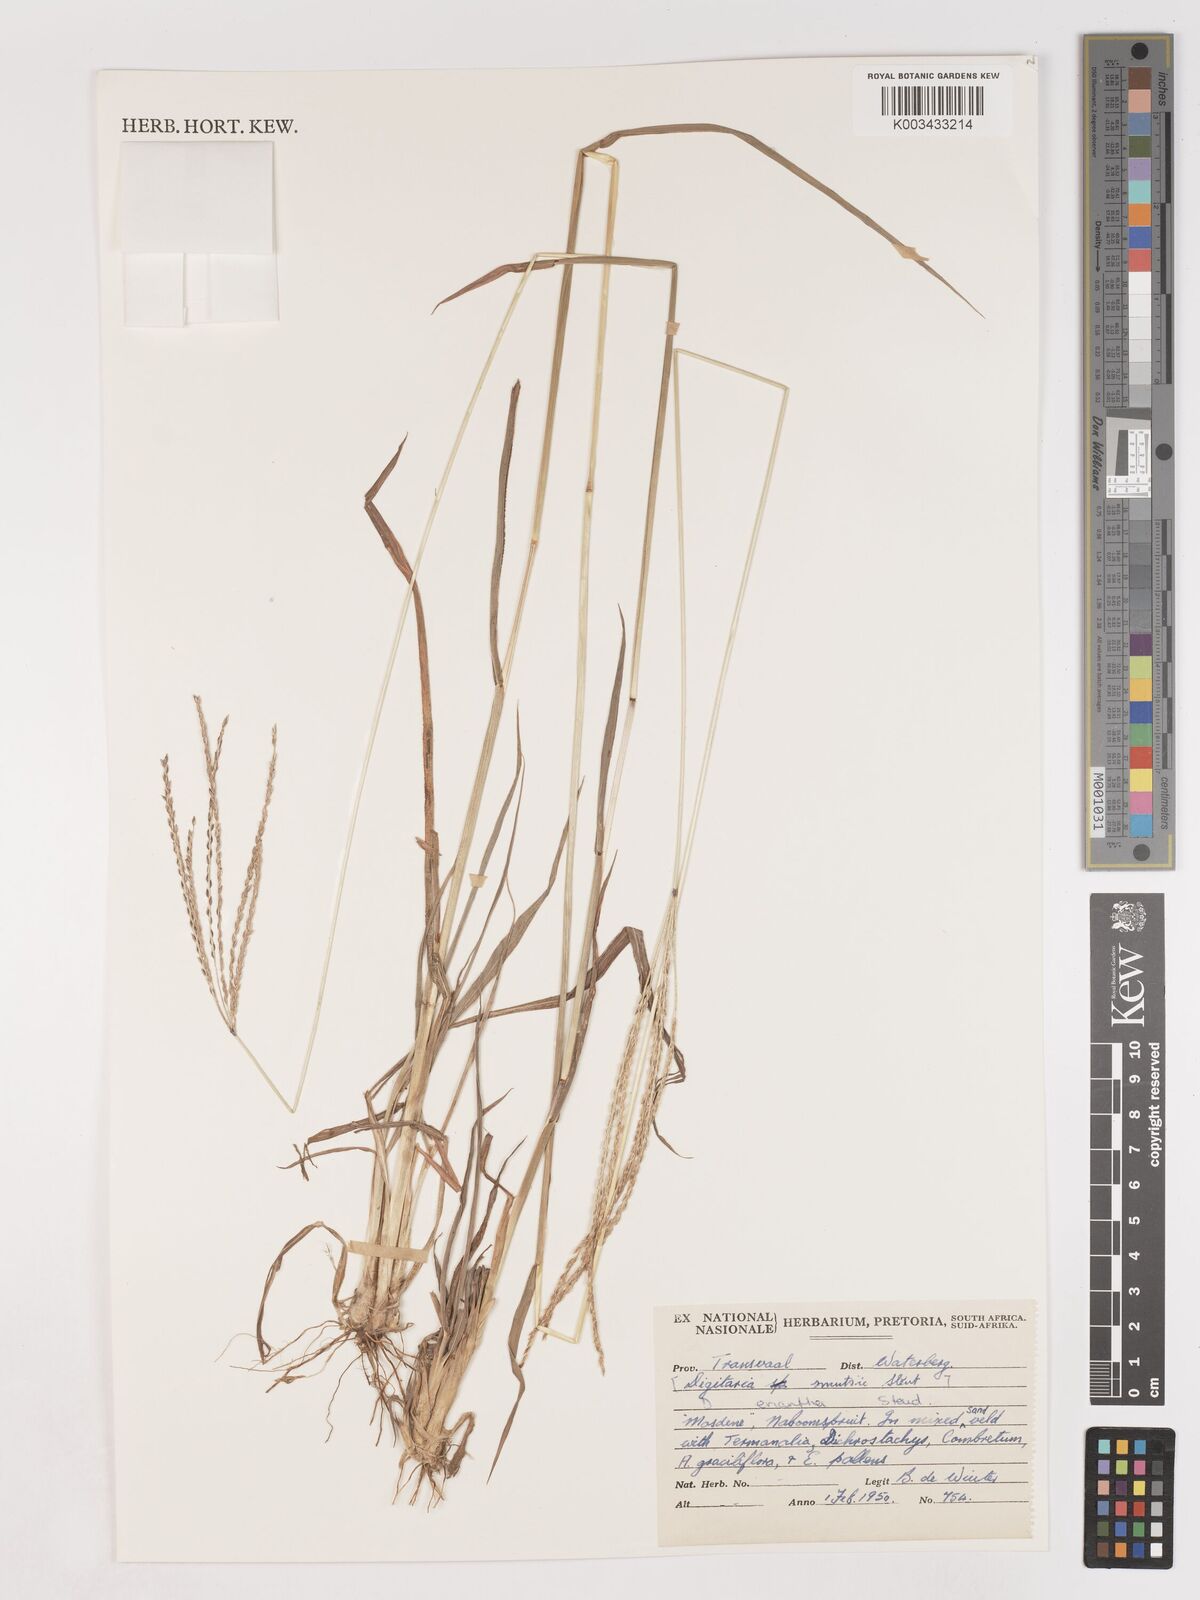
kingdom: Plantae
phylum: Tracheophyta
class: Liliopsida
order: Poales
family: Poaceae
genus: Digitaria
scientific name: Digitaria eriantha
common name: Digitgrass
